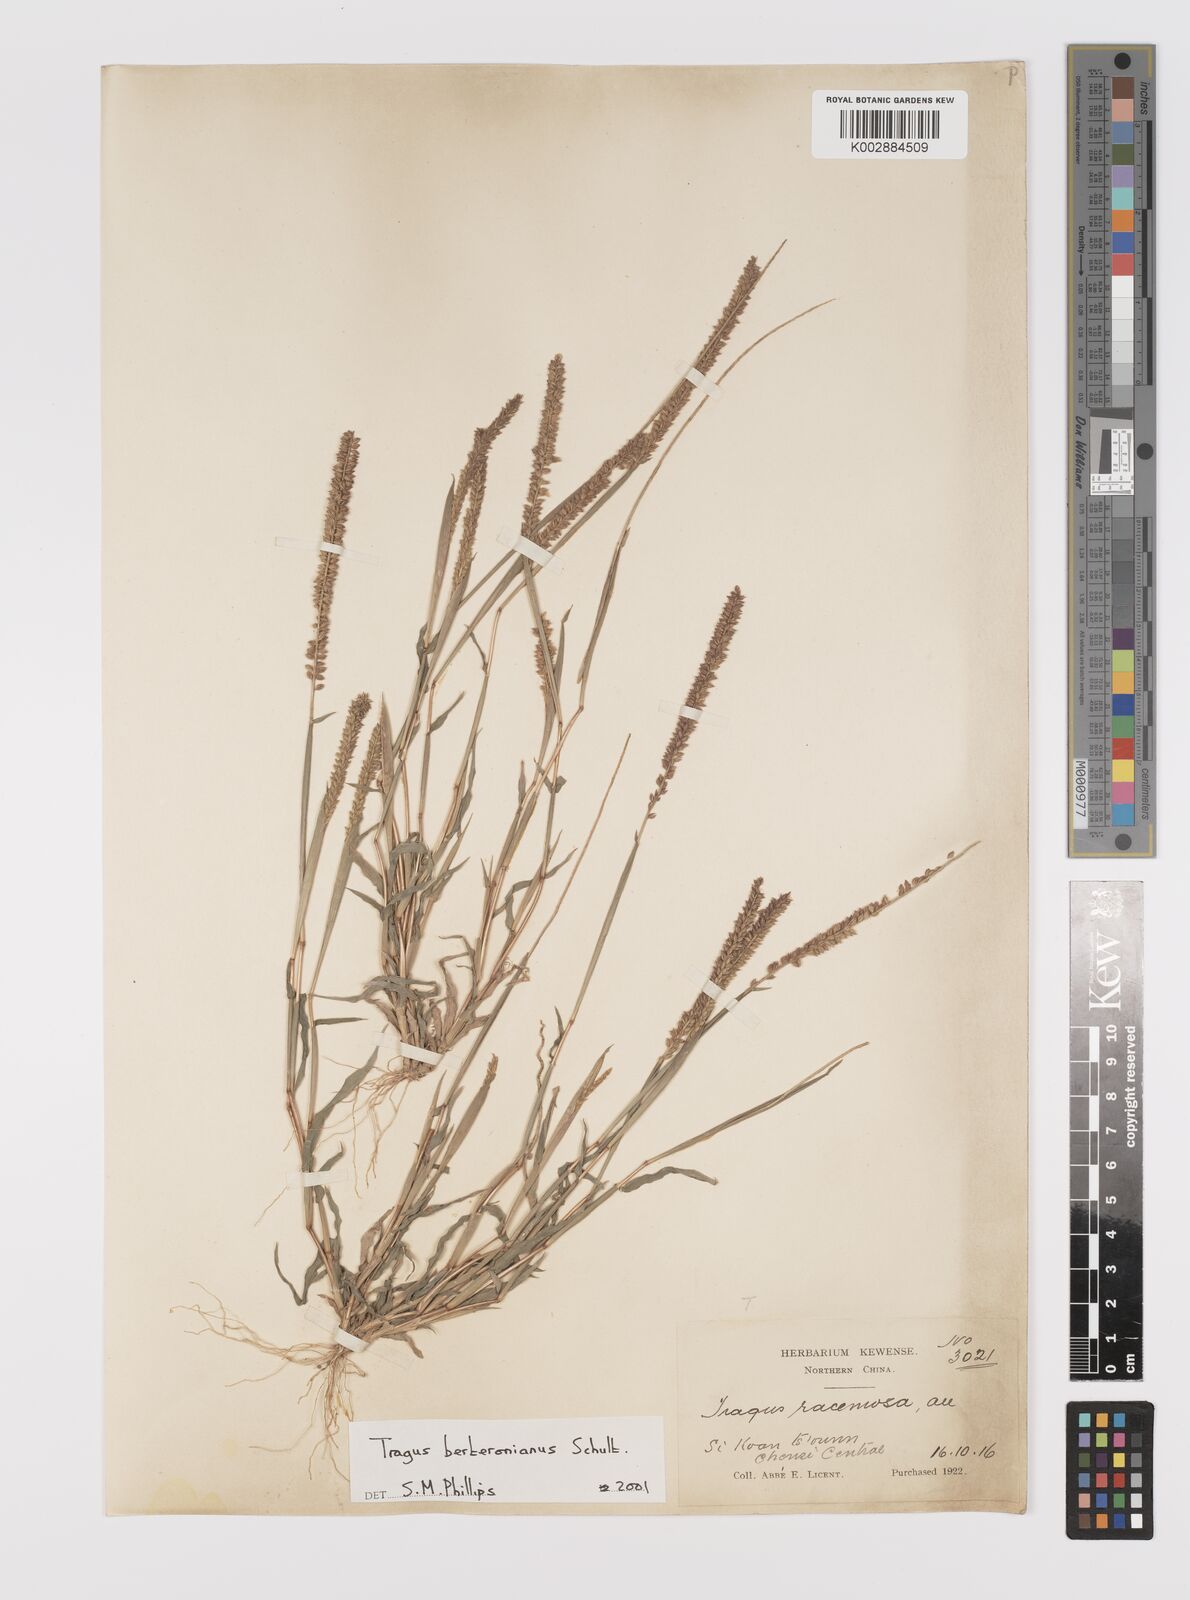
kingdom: Plantae
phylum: Tracheophyta
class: Liliopsida
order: Poales
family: Poaceae
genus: Tragus
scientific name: Tragus berteronianus
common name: African bur-grass
